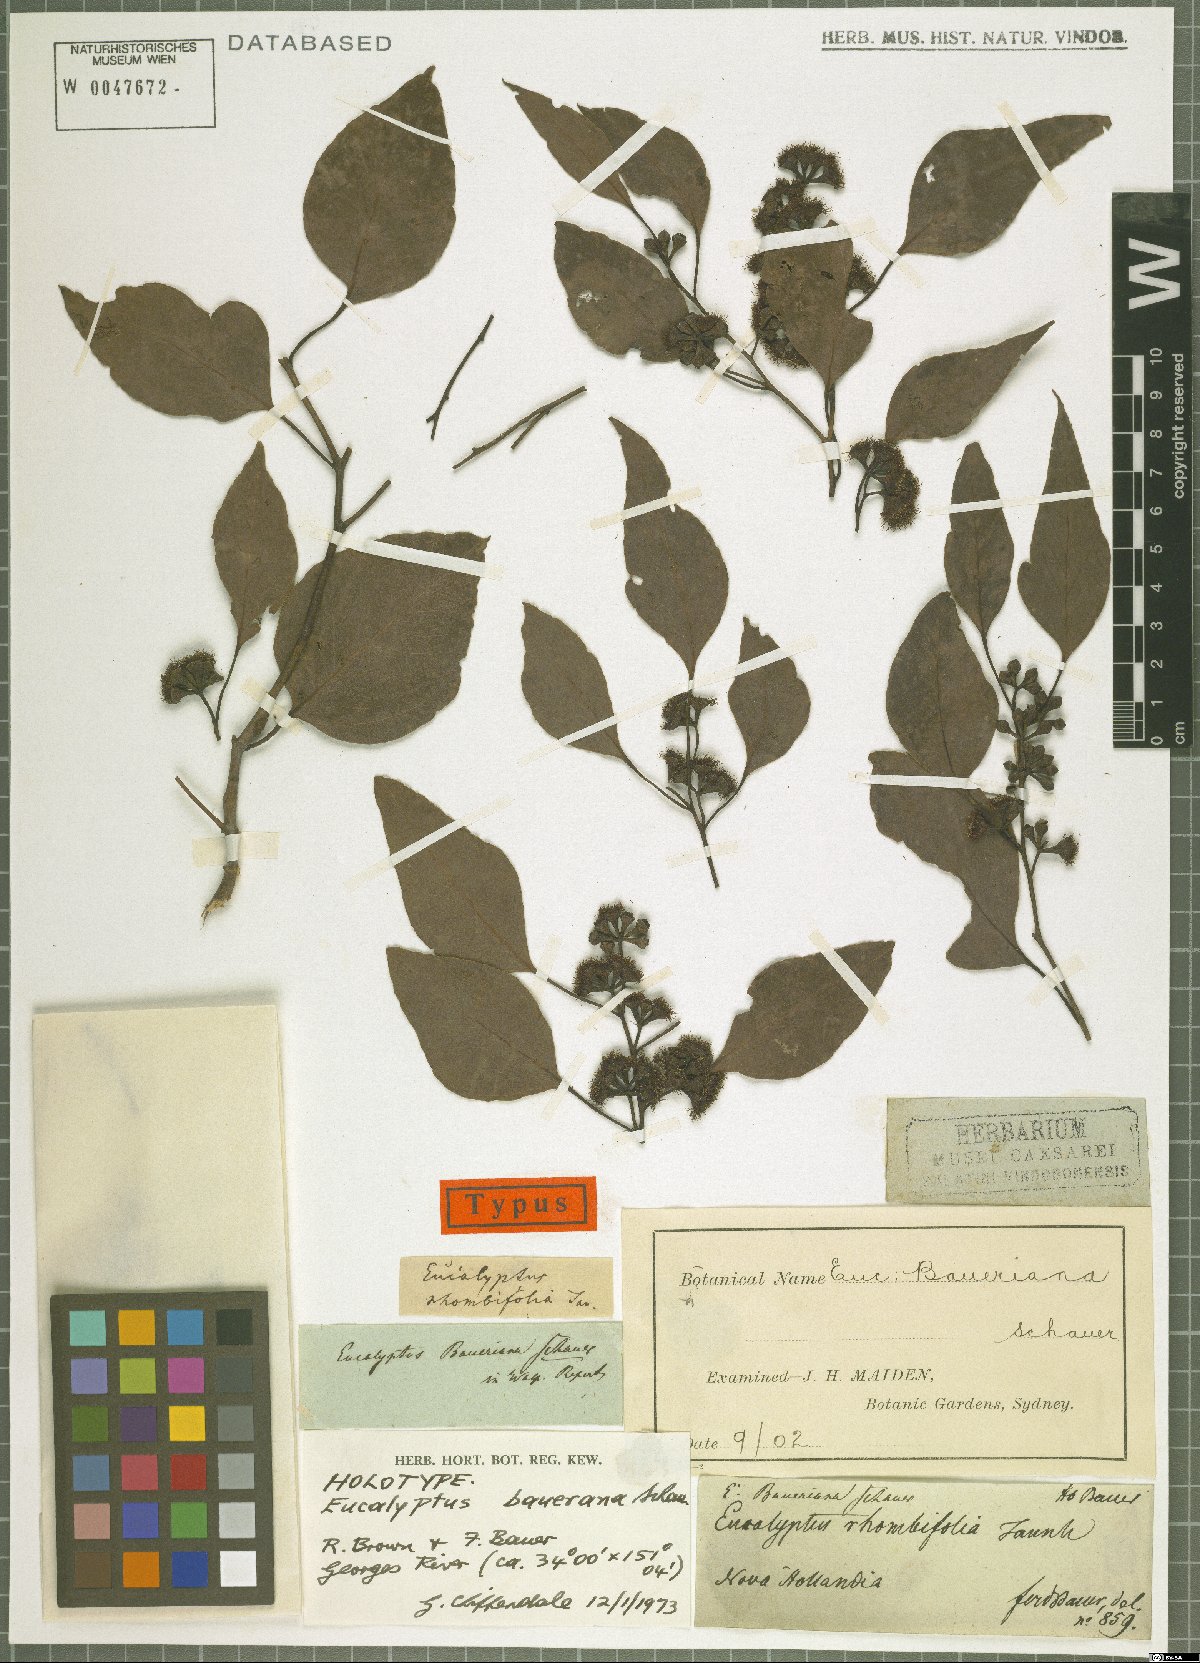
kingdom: Plantae
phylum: Tracheophyta
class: Magnoliopsida
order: Myrtales
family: Myrtaceae
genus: Eucalyptus
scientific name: Eucalyptus baueriana
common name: Round-leaf-box
